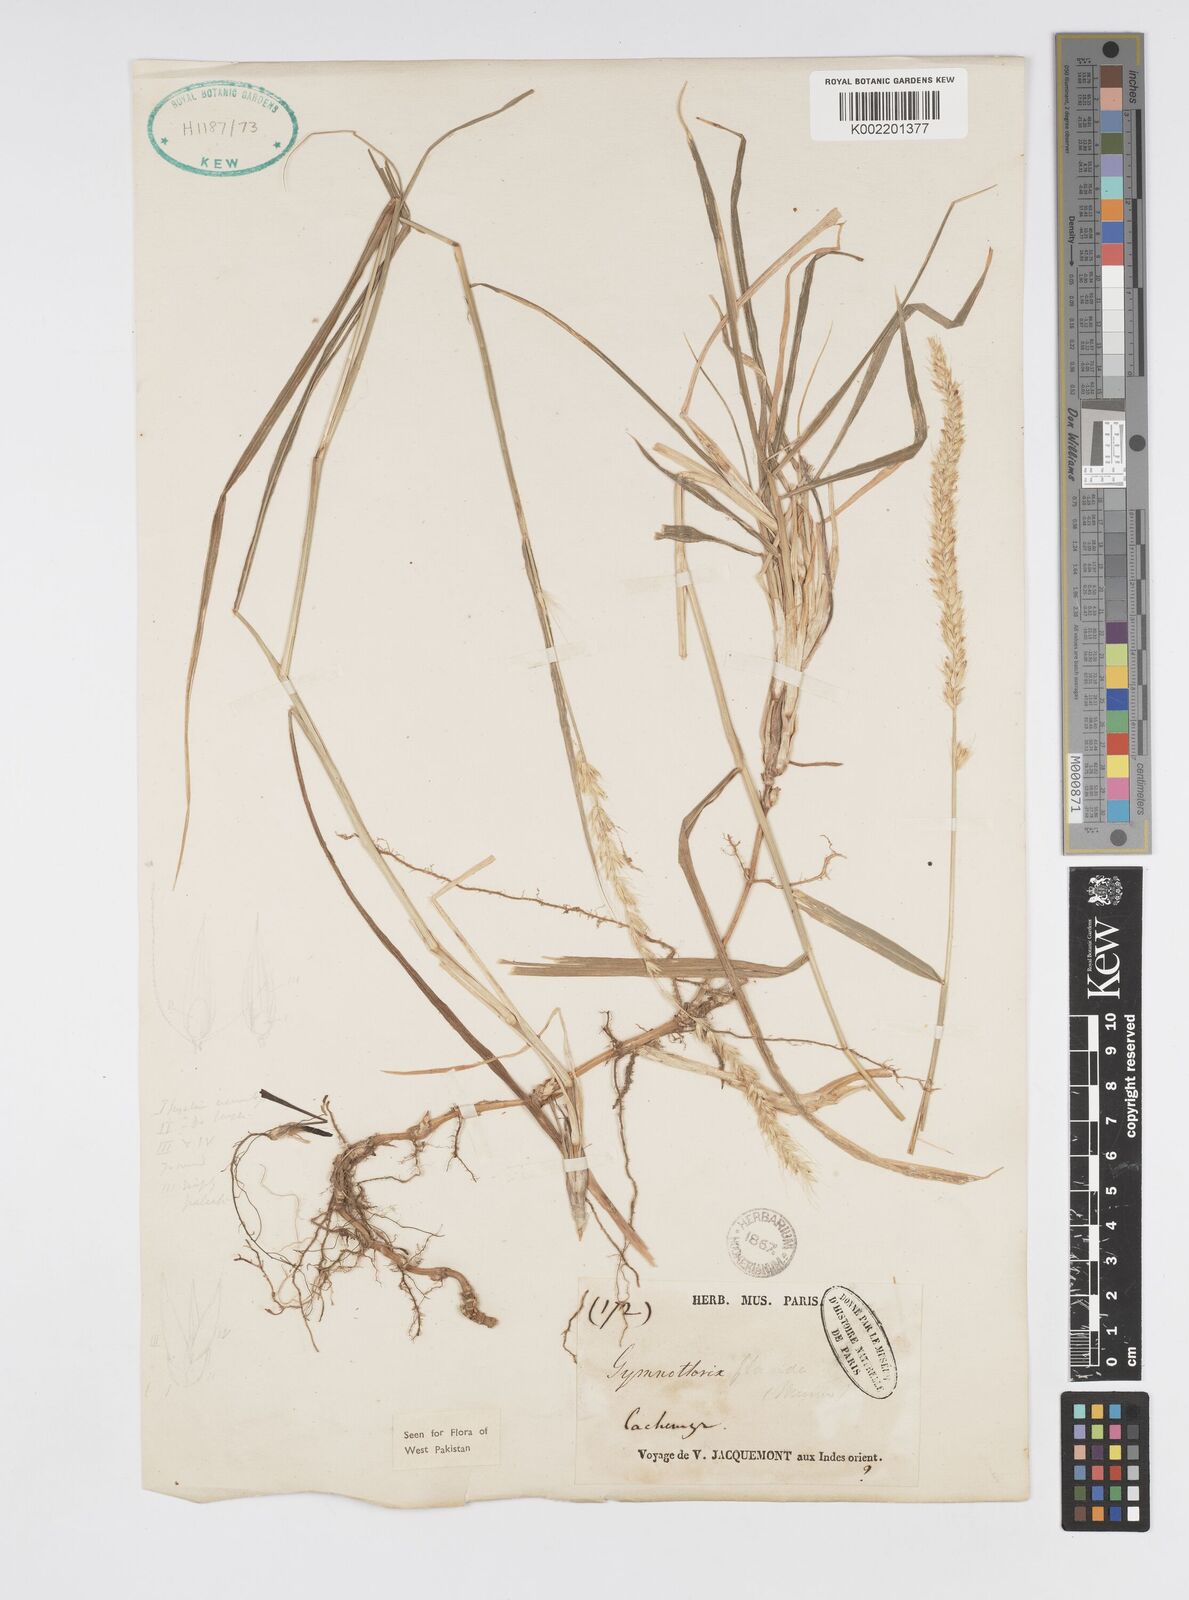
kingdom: Plantae
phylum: Tracheophyta
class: Liliopsida
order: Poales
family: Poaceae
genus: Cenchrus
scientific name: Cenchrus flaccidus
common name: Flaccid grass
